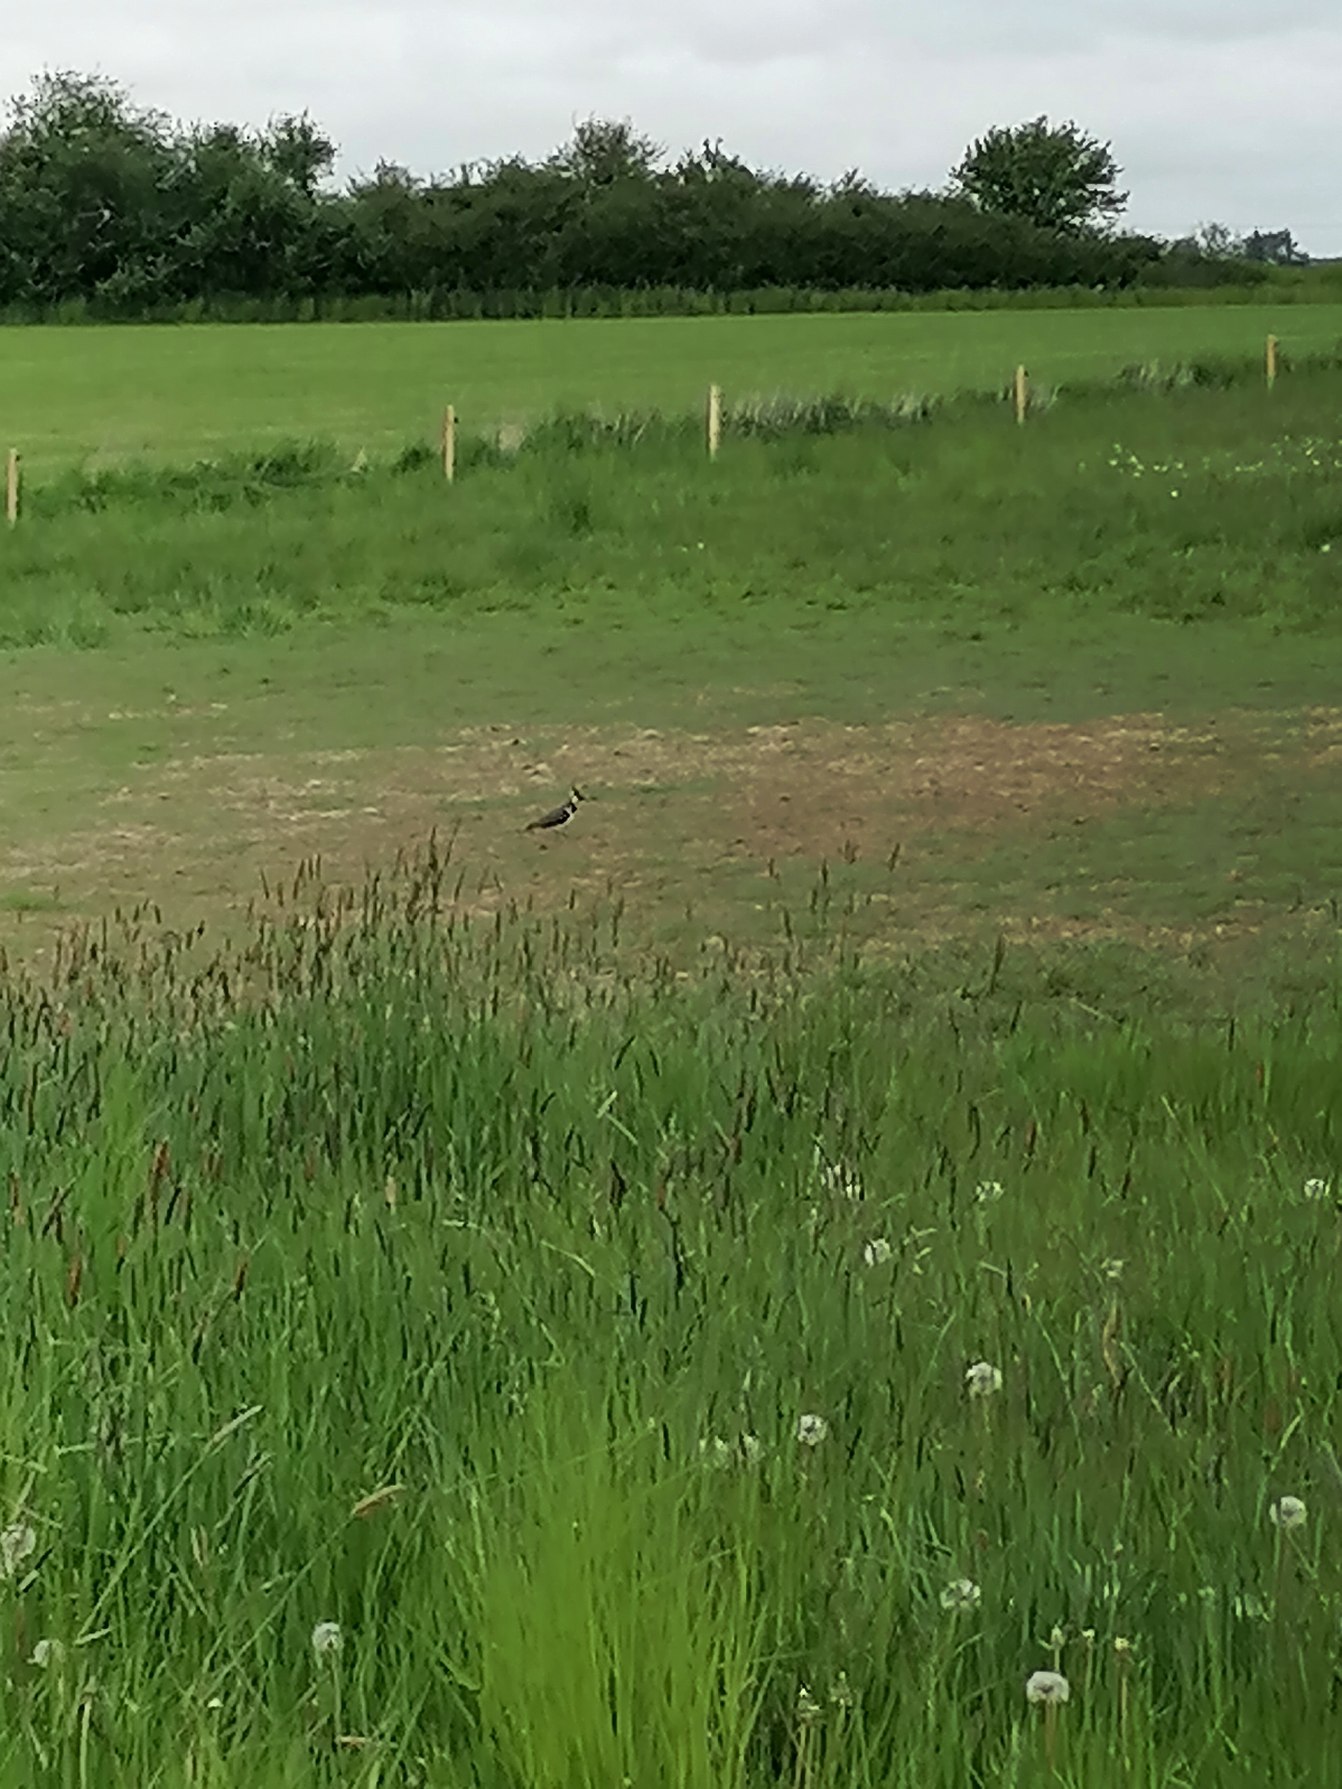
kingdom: Animalia
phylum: Chordata
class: Aves
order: Charadriiformes
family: Charadriidae
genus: Vanellus
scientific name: Vanellus vanellus
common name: Vibe
